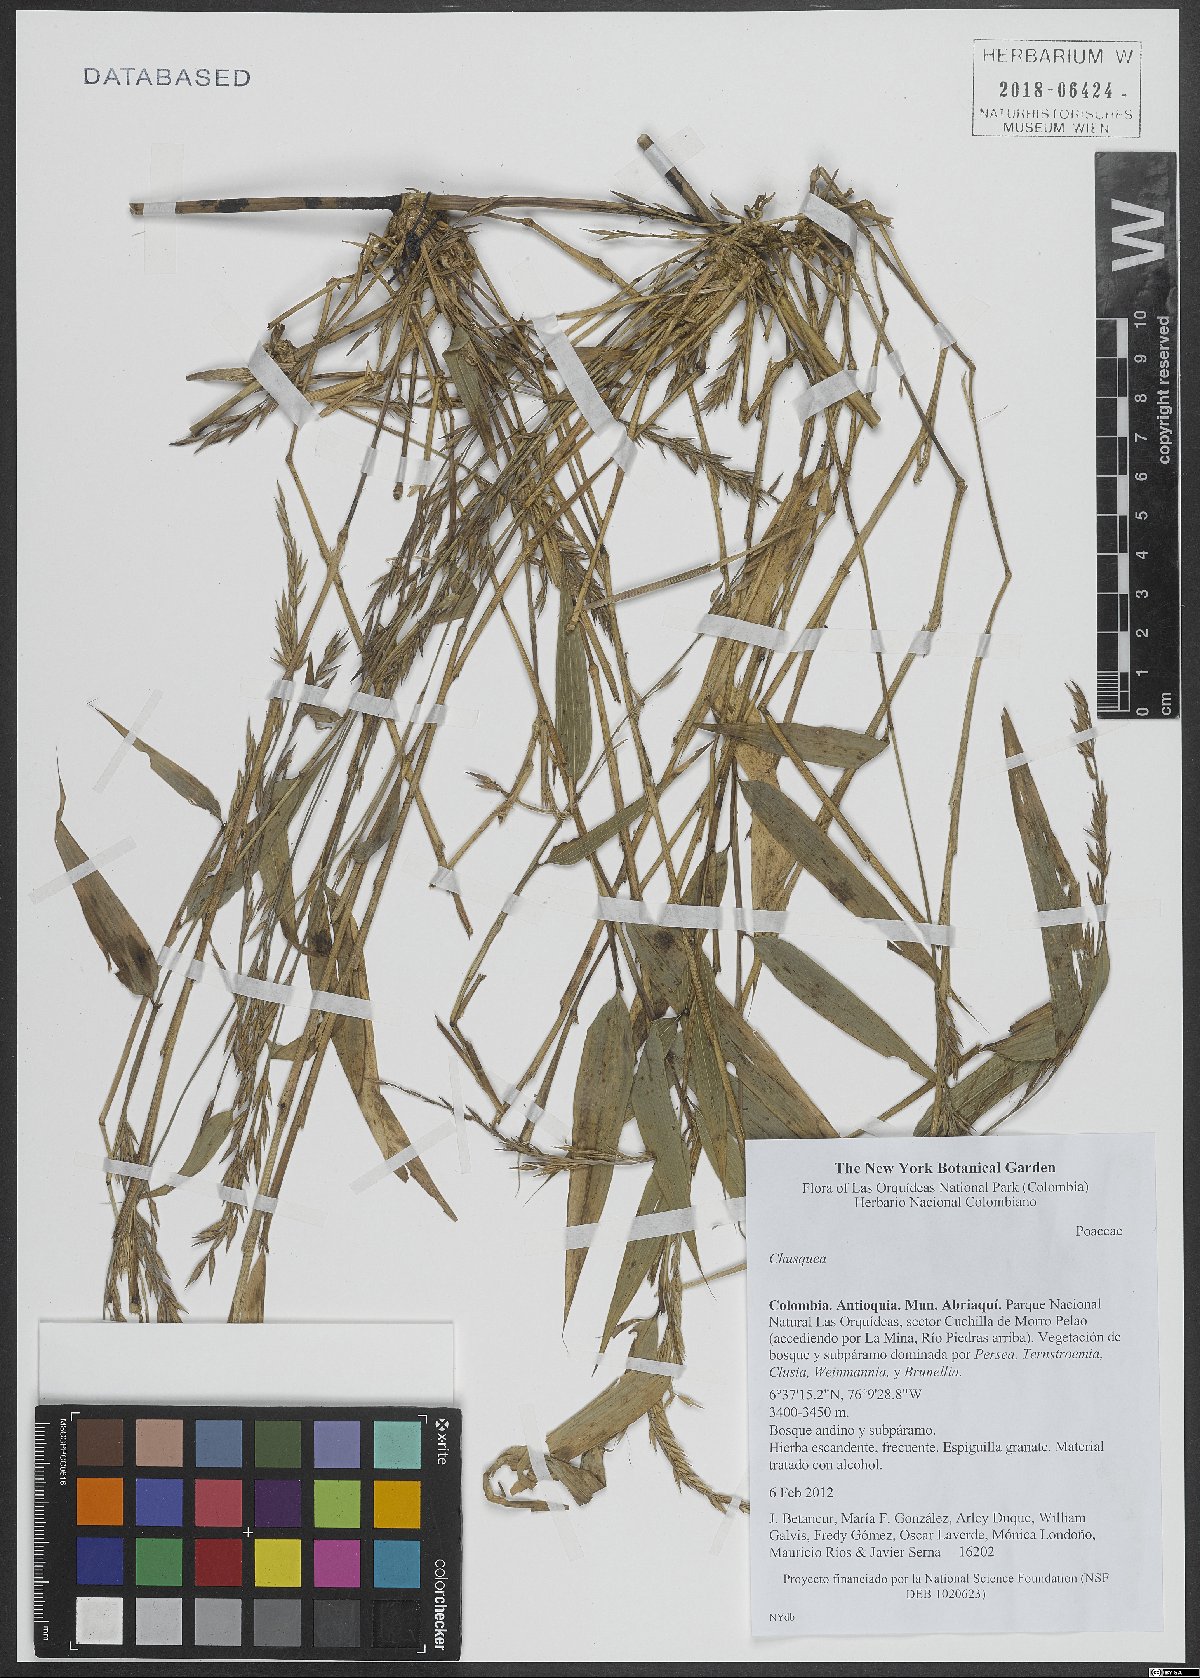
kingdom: Plantae
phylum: Tracheophyta
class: Liliopsida
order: Poales
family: Poaceae
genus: Chusquea
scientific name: Chusquea
